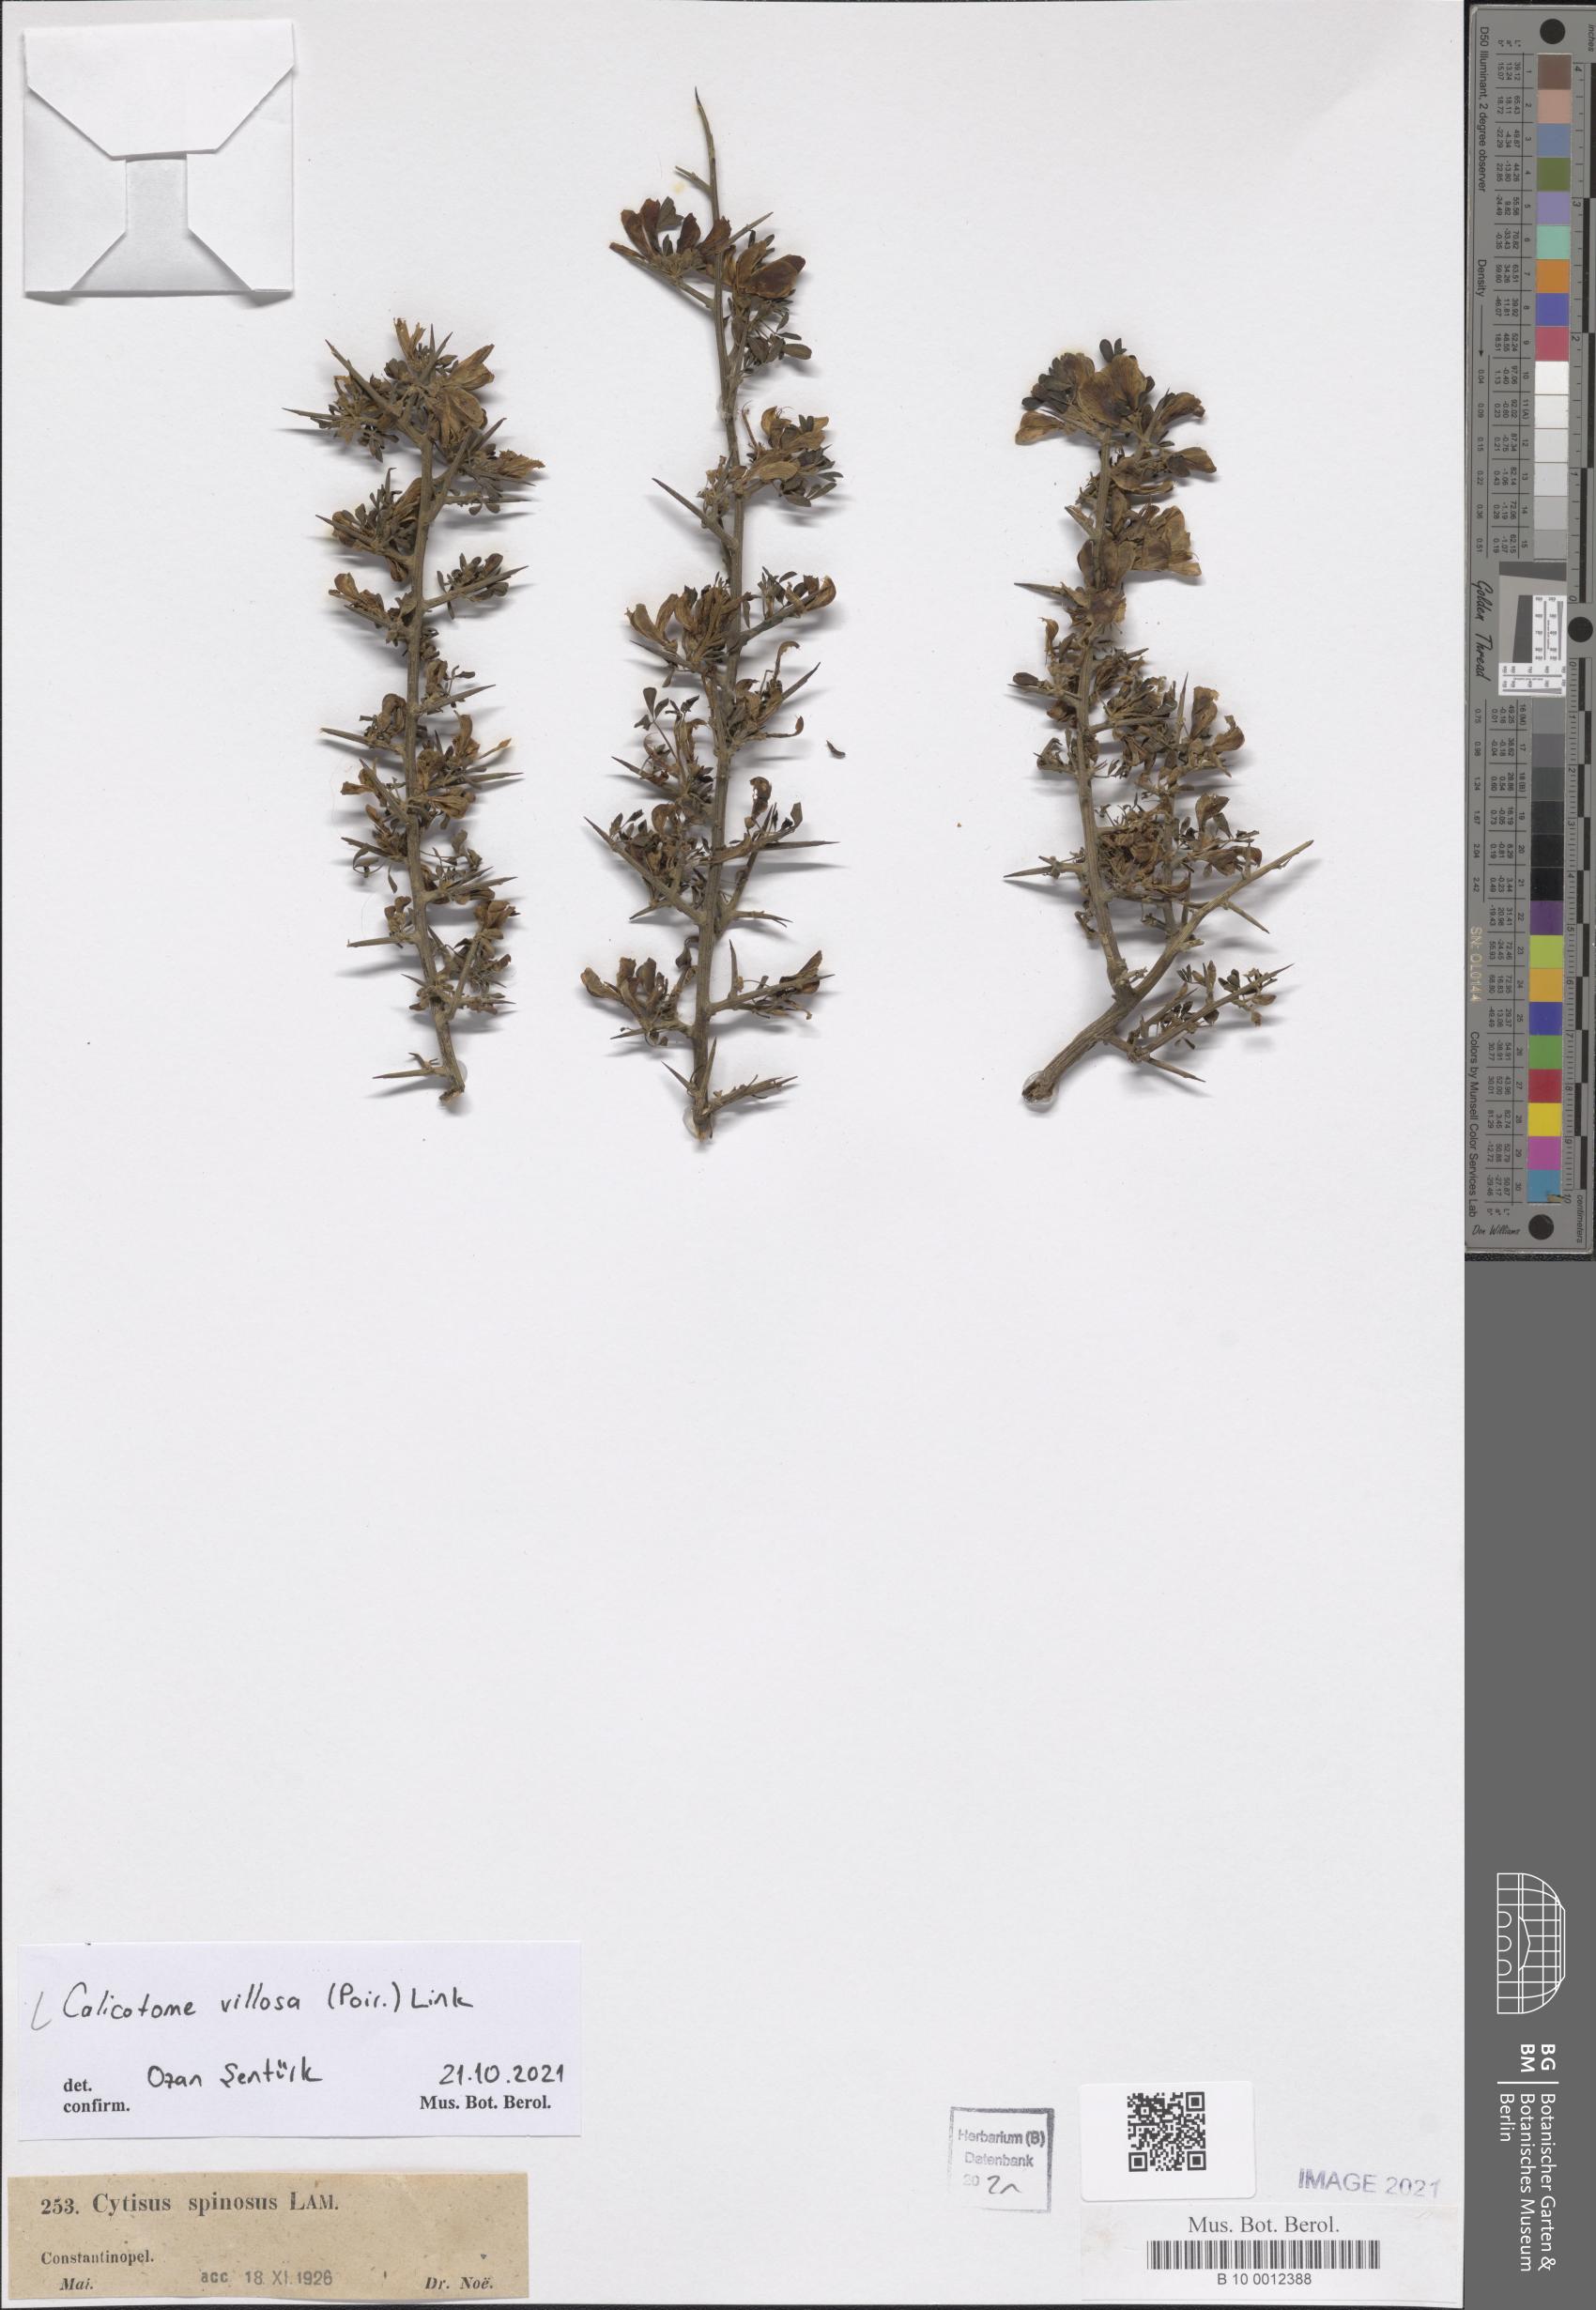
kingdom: Plantae
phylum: Tracheophyta
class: Magnoliopsida
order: Fabales
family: Fabaceae
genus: Calicotome
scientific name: Calicotome villosa
